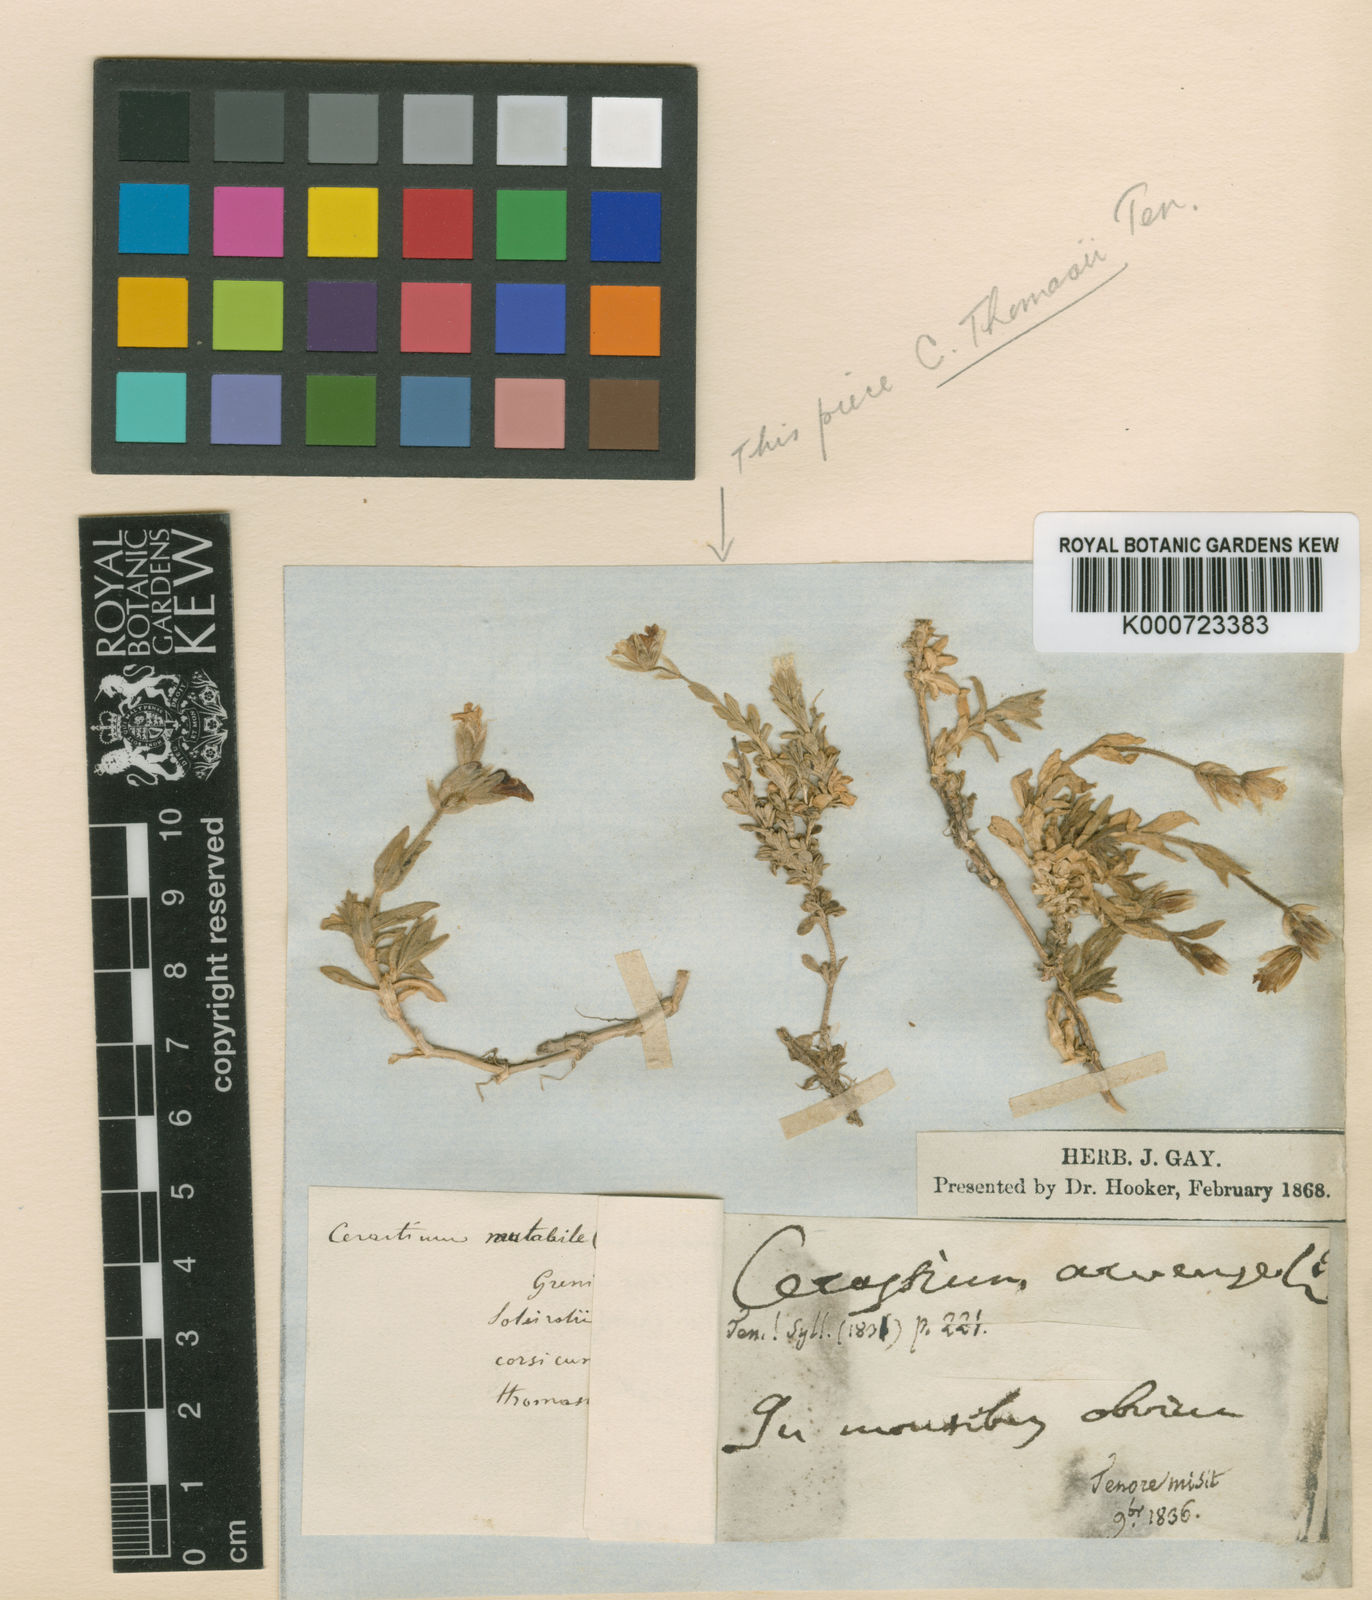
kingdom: Plantae
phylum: Tracheophyta
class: Magnoliopsida
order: Caryophyllales
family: Caryophyllaceae
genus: Cerastium
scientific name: Cerastium arvense
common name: Field mouse-ear
